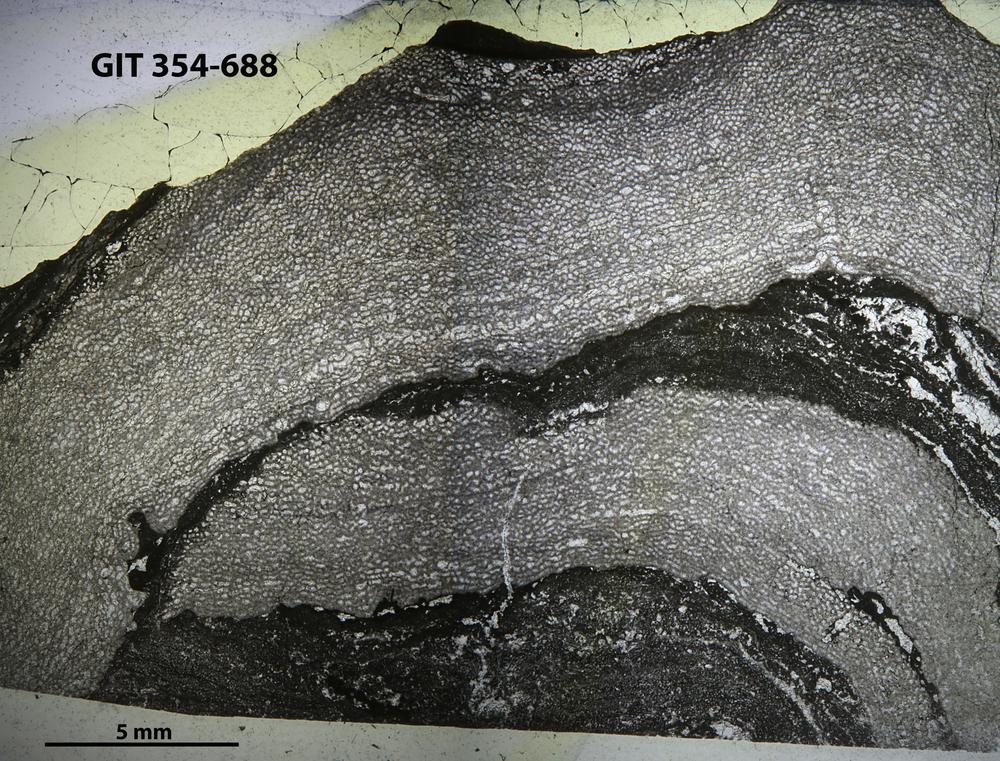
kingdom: Animalia
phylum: Porifera
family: Ecclimadictyidae
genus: Ecclimadictyon
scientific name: Ecclimadictyon
